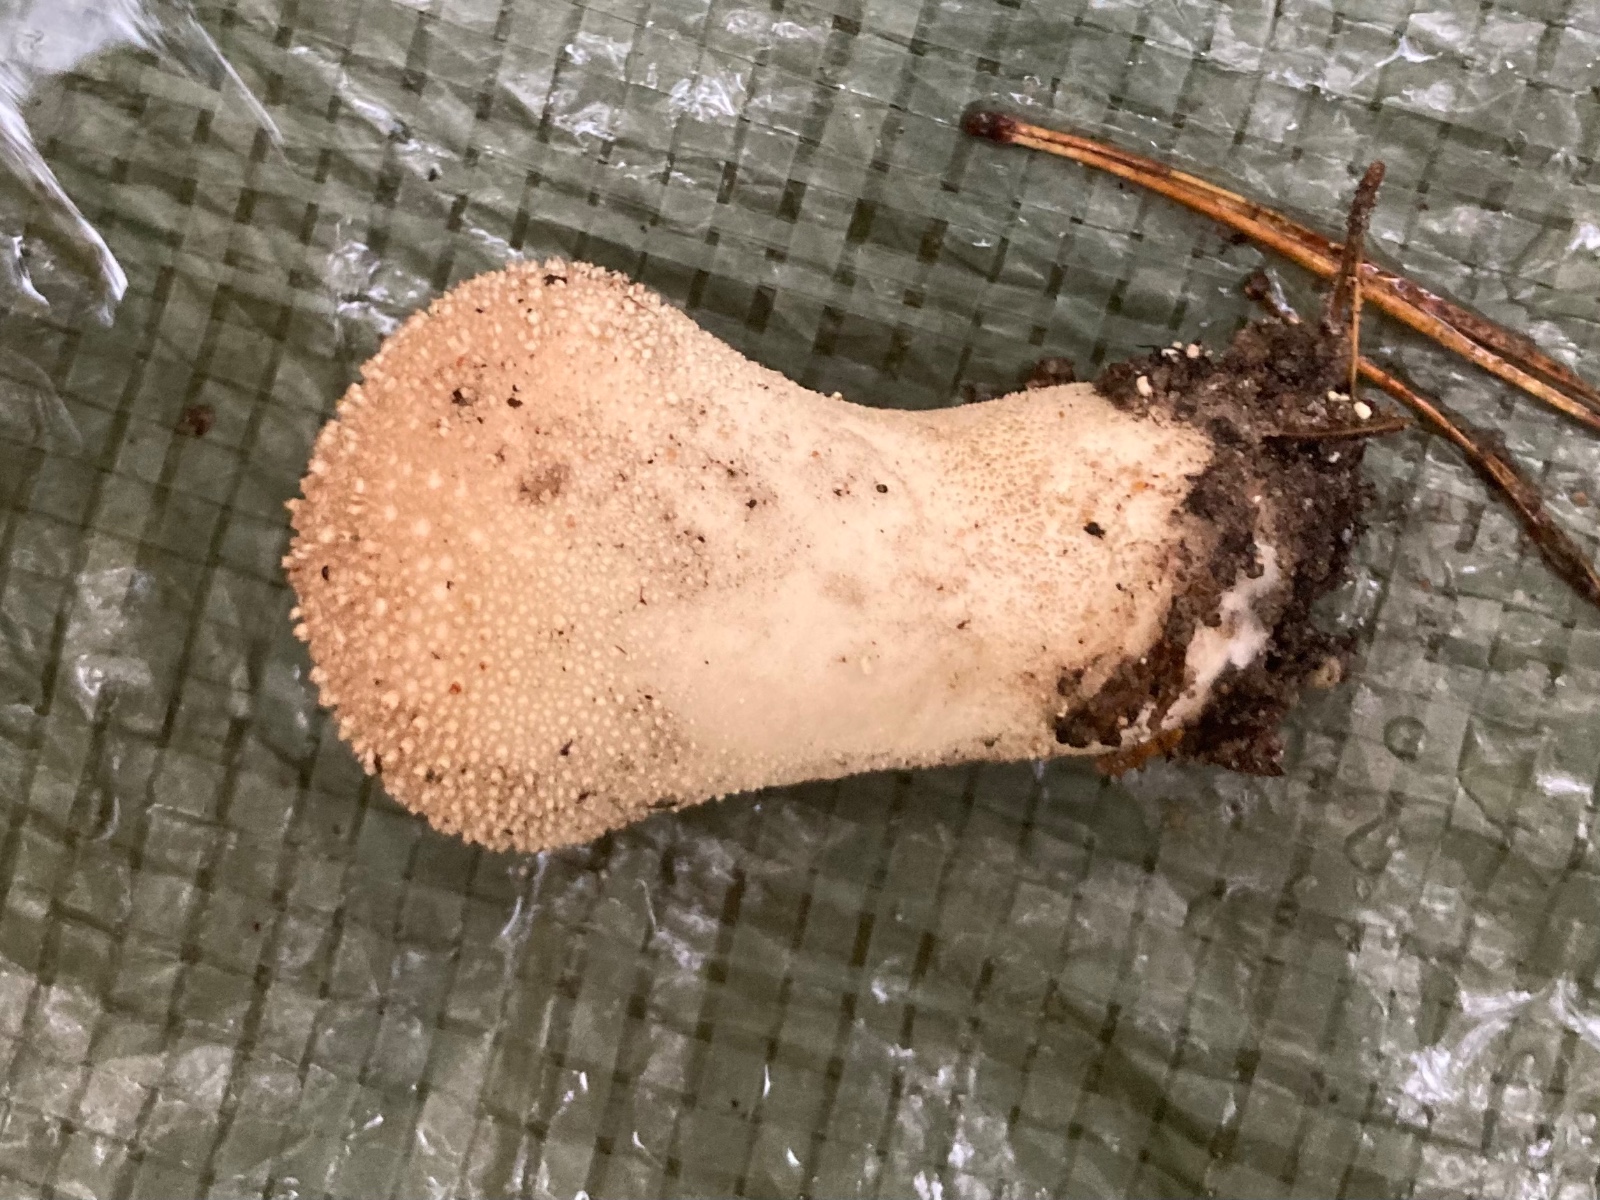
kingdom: Fungi
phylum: Basidiomycota
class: Agaricomycetes
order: Agaricales
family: Lycoperdaceae
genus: Lycoperdon
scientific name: Lycoperdon perlatum
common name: krystal-støvbold
